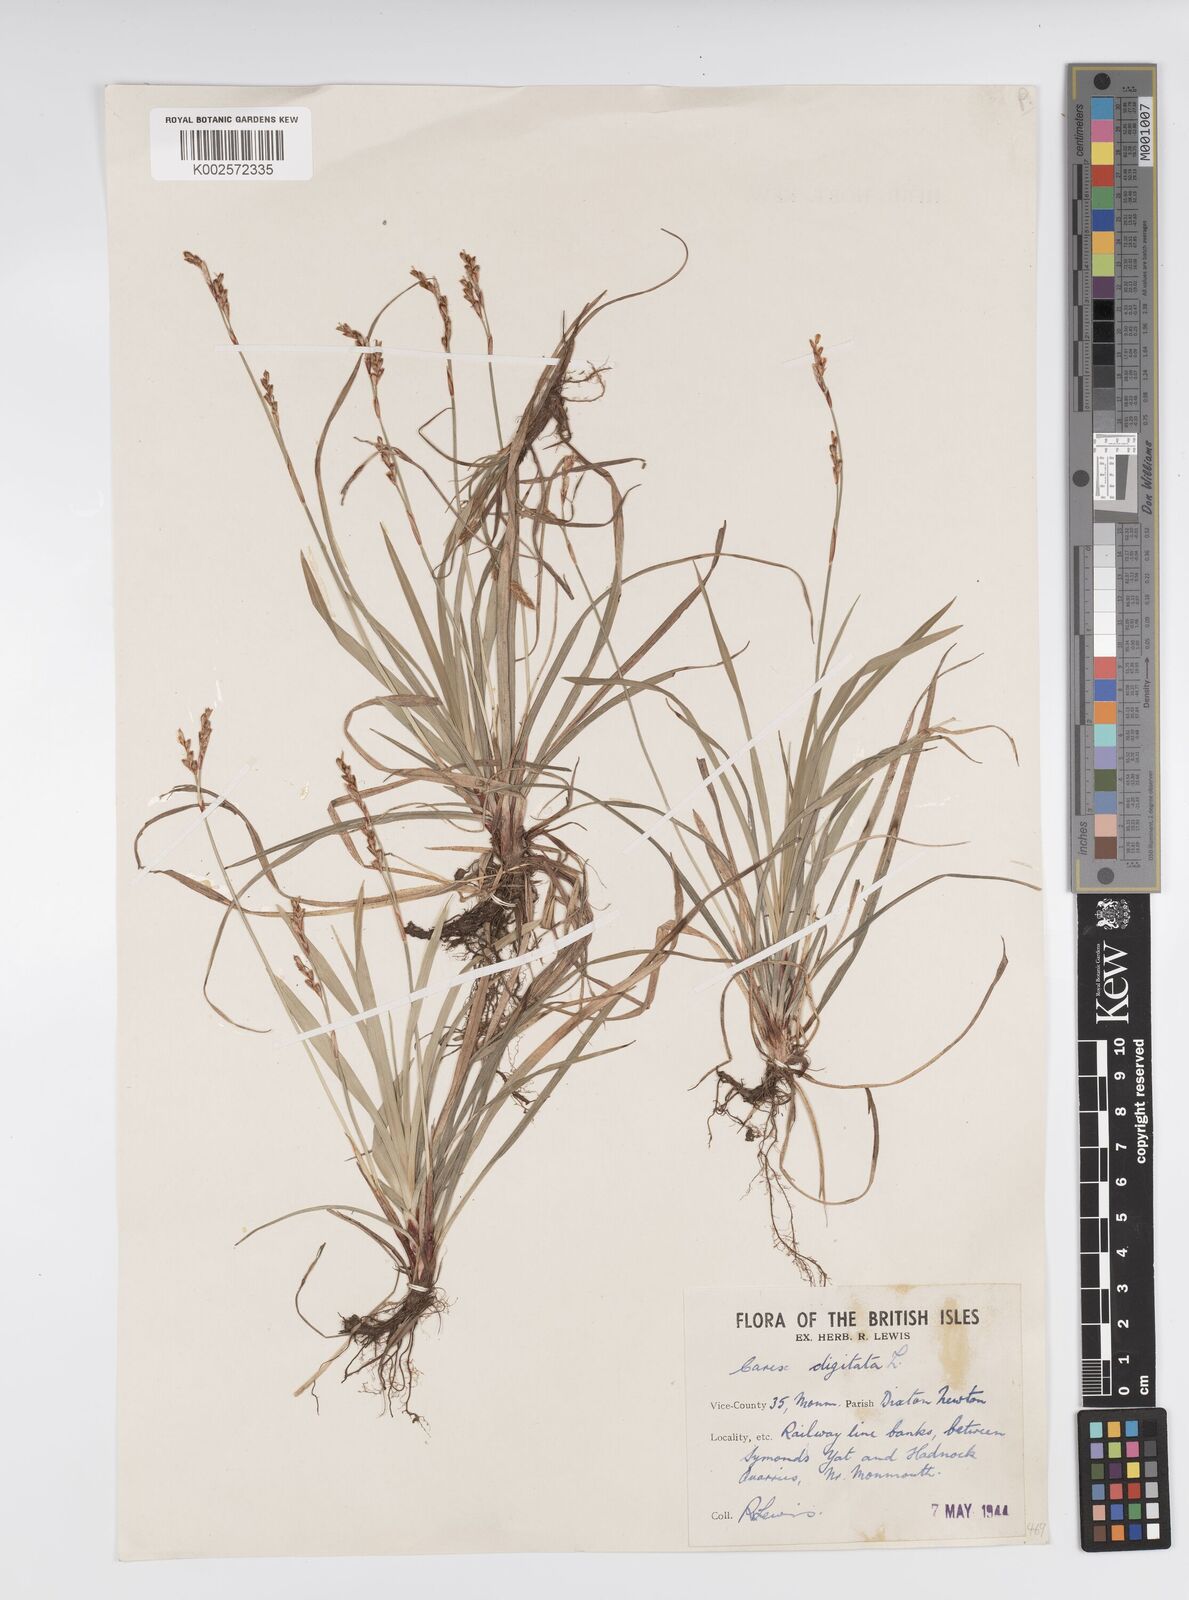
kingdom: Plantae
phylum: Tracheophyta
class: Liliopsida
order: Poales
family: Cyperaceae
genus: Carex
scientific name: Carex digitata
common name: Fingered sedge
